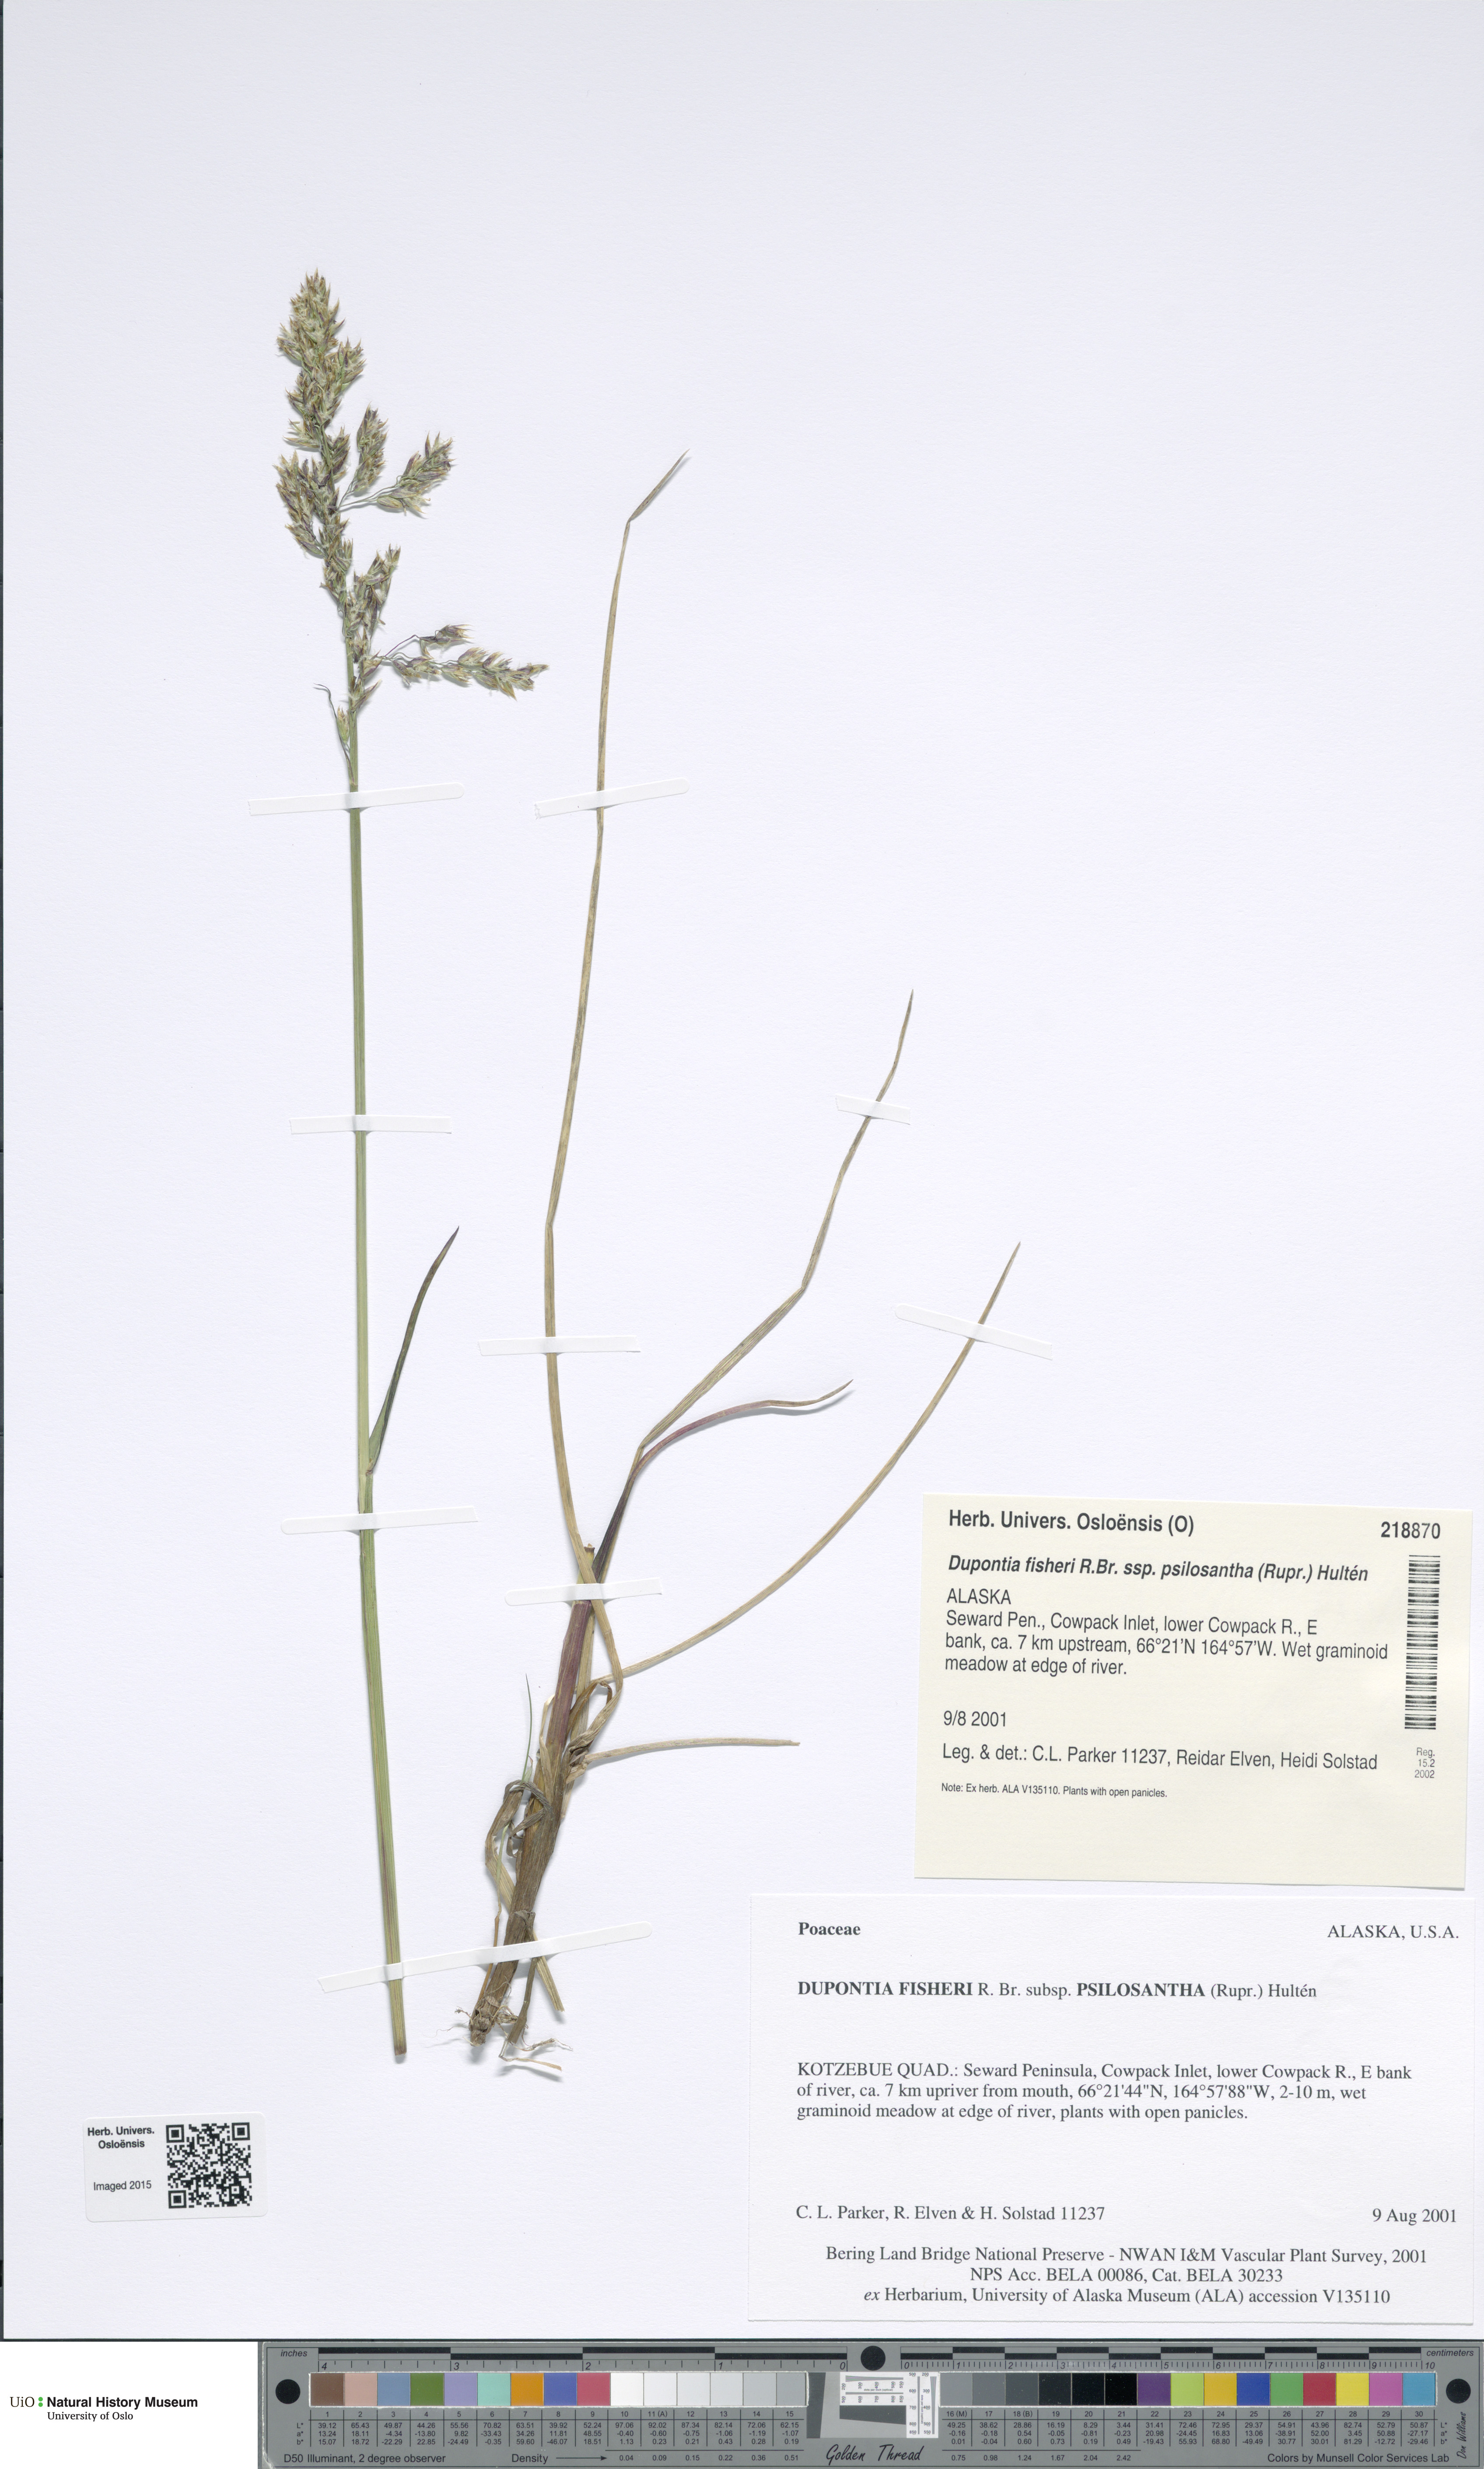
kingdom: Plantae
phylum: Tracheophyta
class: Liliopsida
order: Poales
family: Poaceae
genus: Dupontia
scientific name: Dupontia fisheri
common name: Tundra grass
